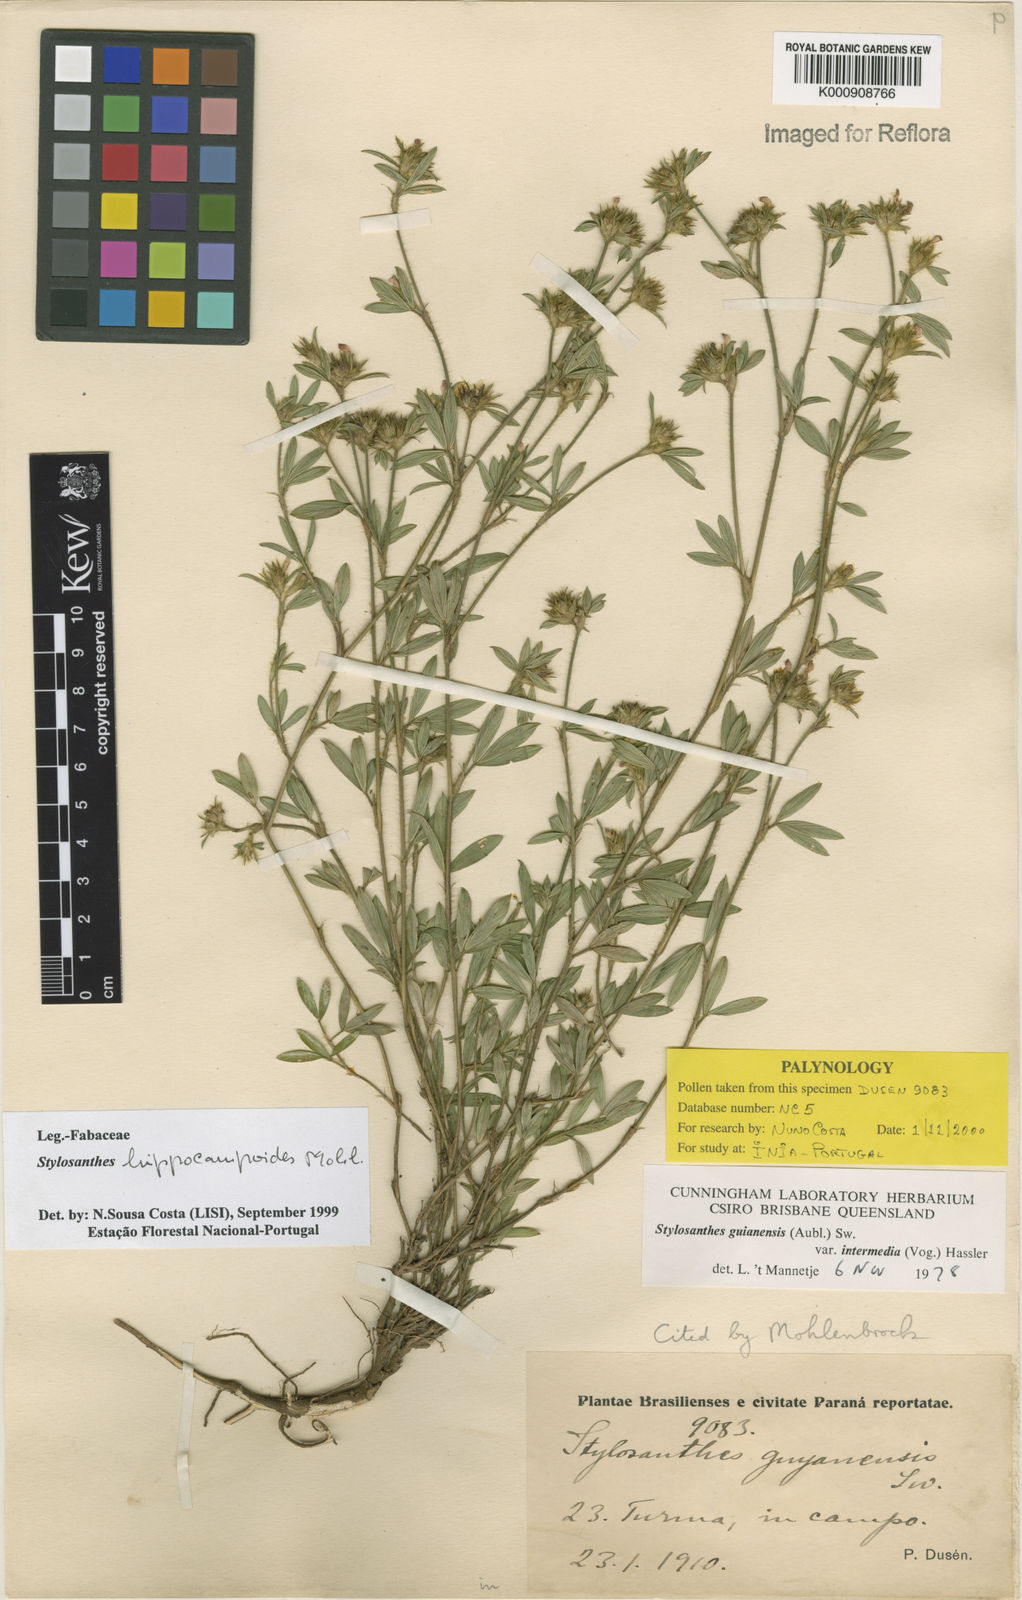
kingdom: Plantae
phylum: Tracheophyta
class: Magnoliopsida
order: Fabales
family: Fabaceae
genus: Stylosanthes
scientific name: Stylosanthes hippocampoides
